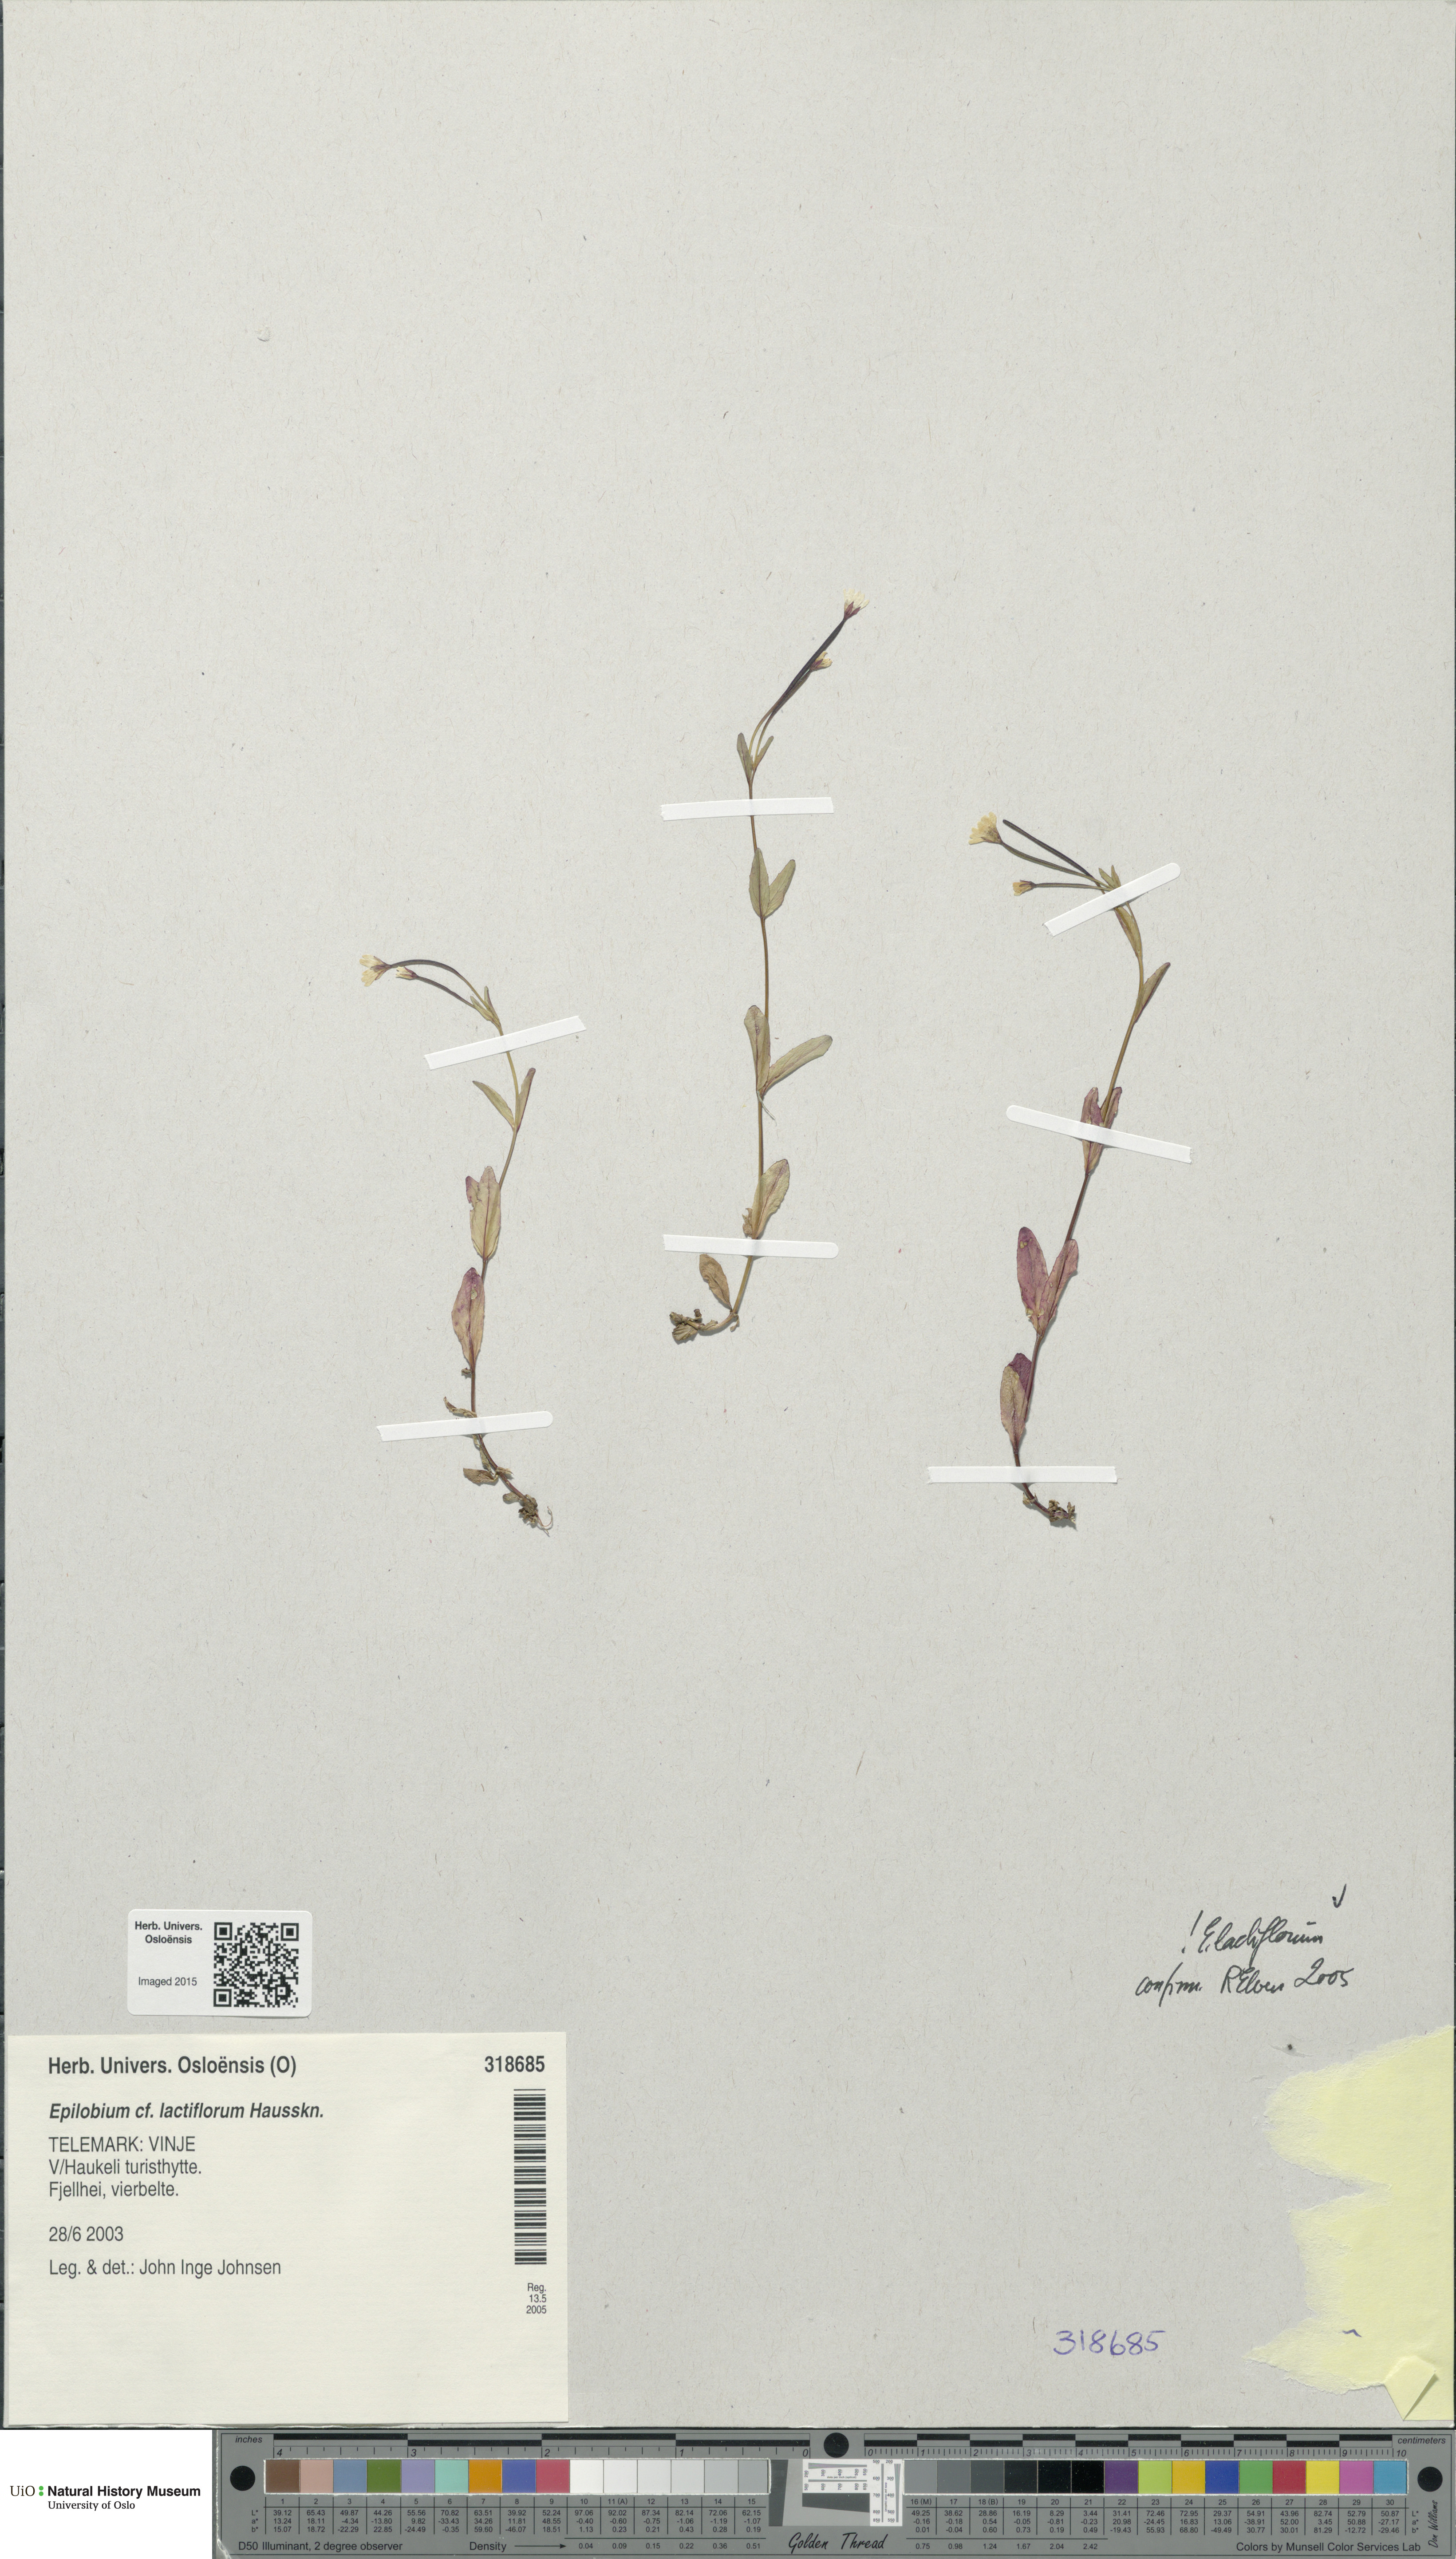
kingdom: Plantae
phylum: Tracheophyta
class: Magnoliopsida
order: Myrtales
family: Onagraceae
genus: Epilobium
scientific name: Epilobium lactiflorum
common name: Milkflower willowherb
